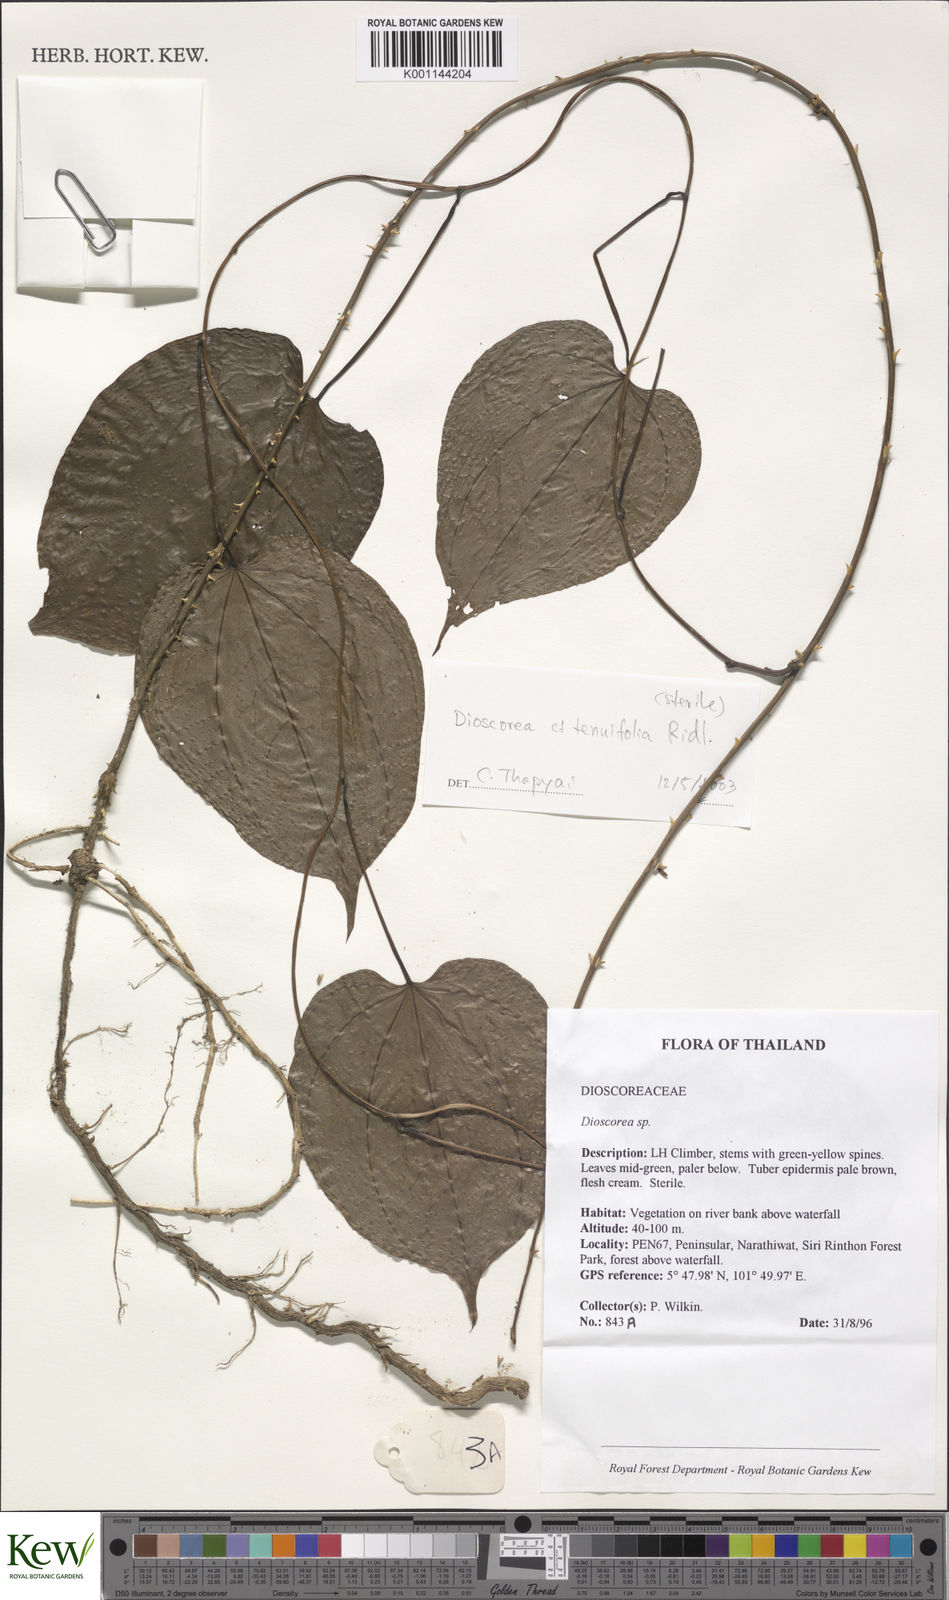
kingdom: Plantae
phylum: Tracheophyta
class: Liliopsida
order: Dioscoreales
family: Dioscoreaceae
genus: Dioscorea
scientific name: Dioscorea
